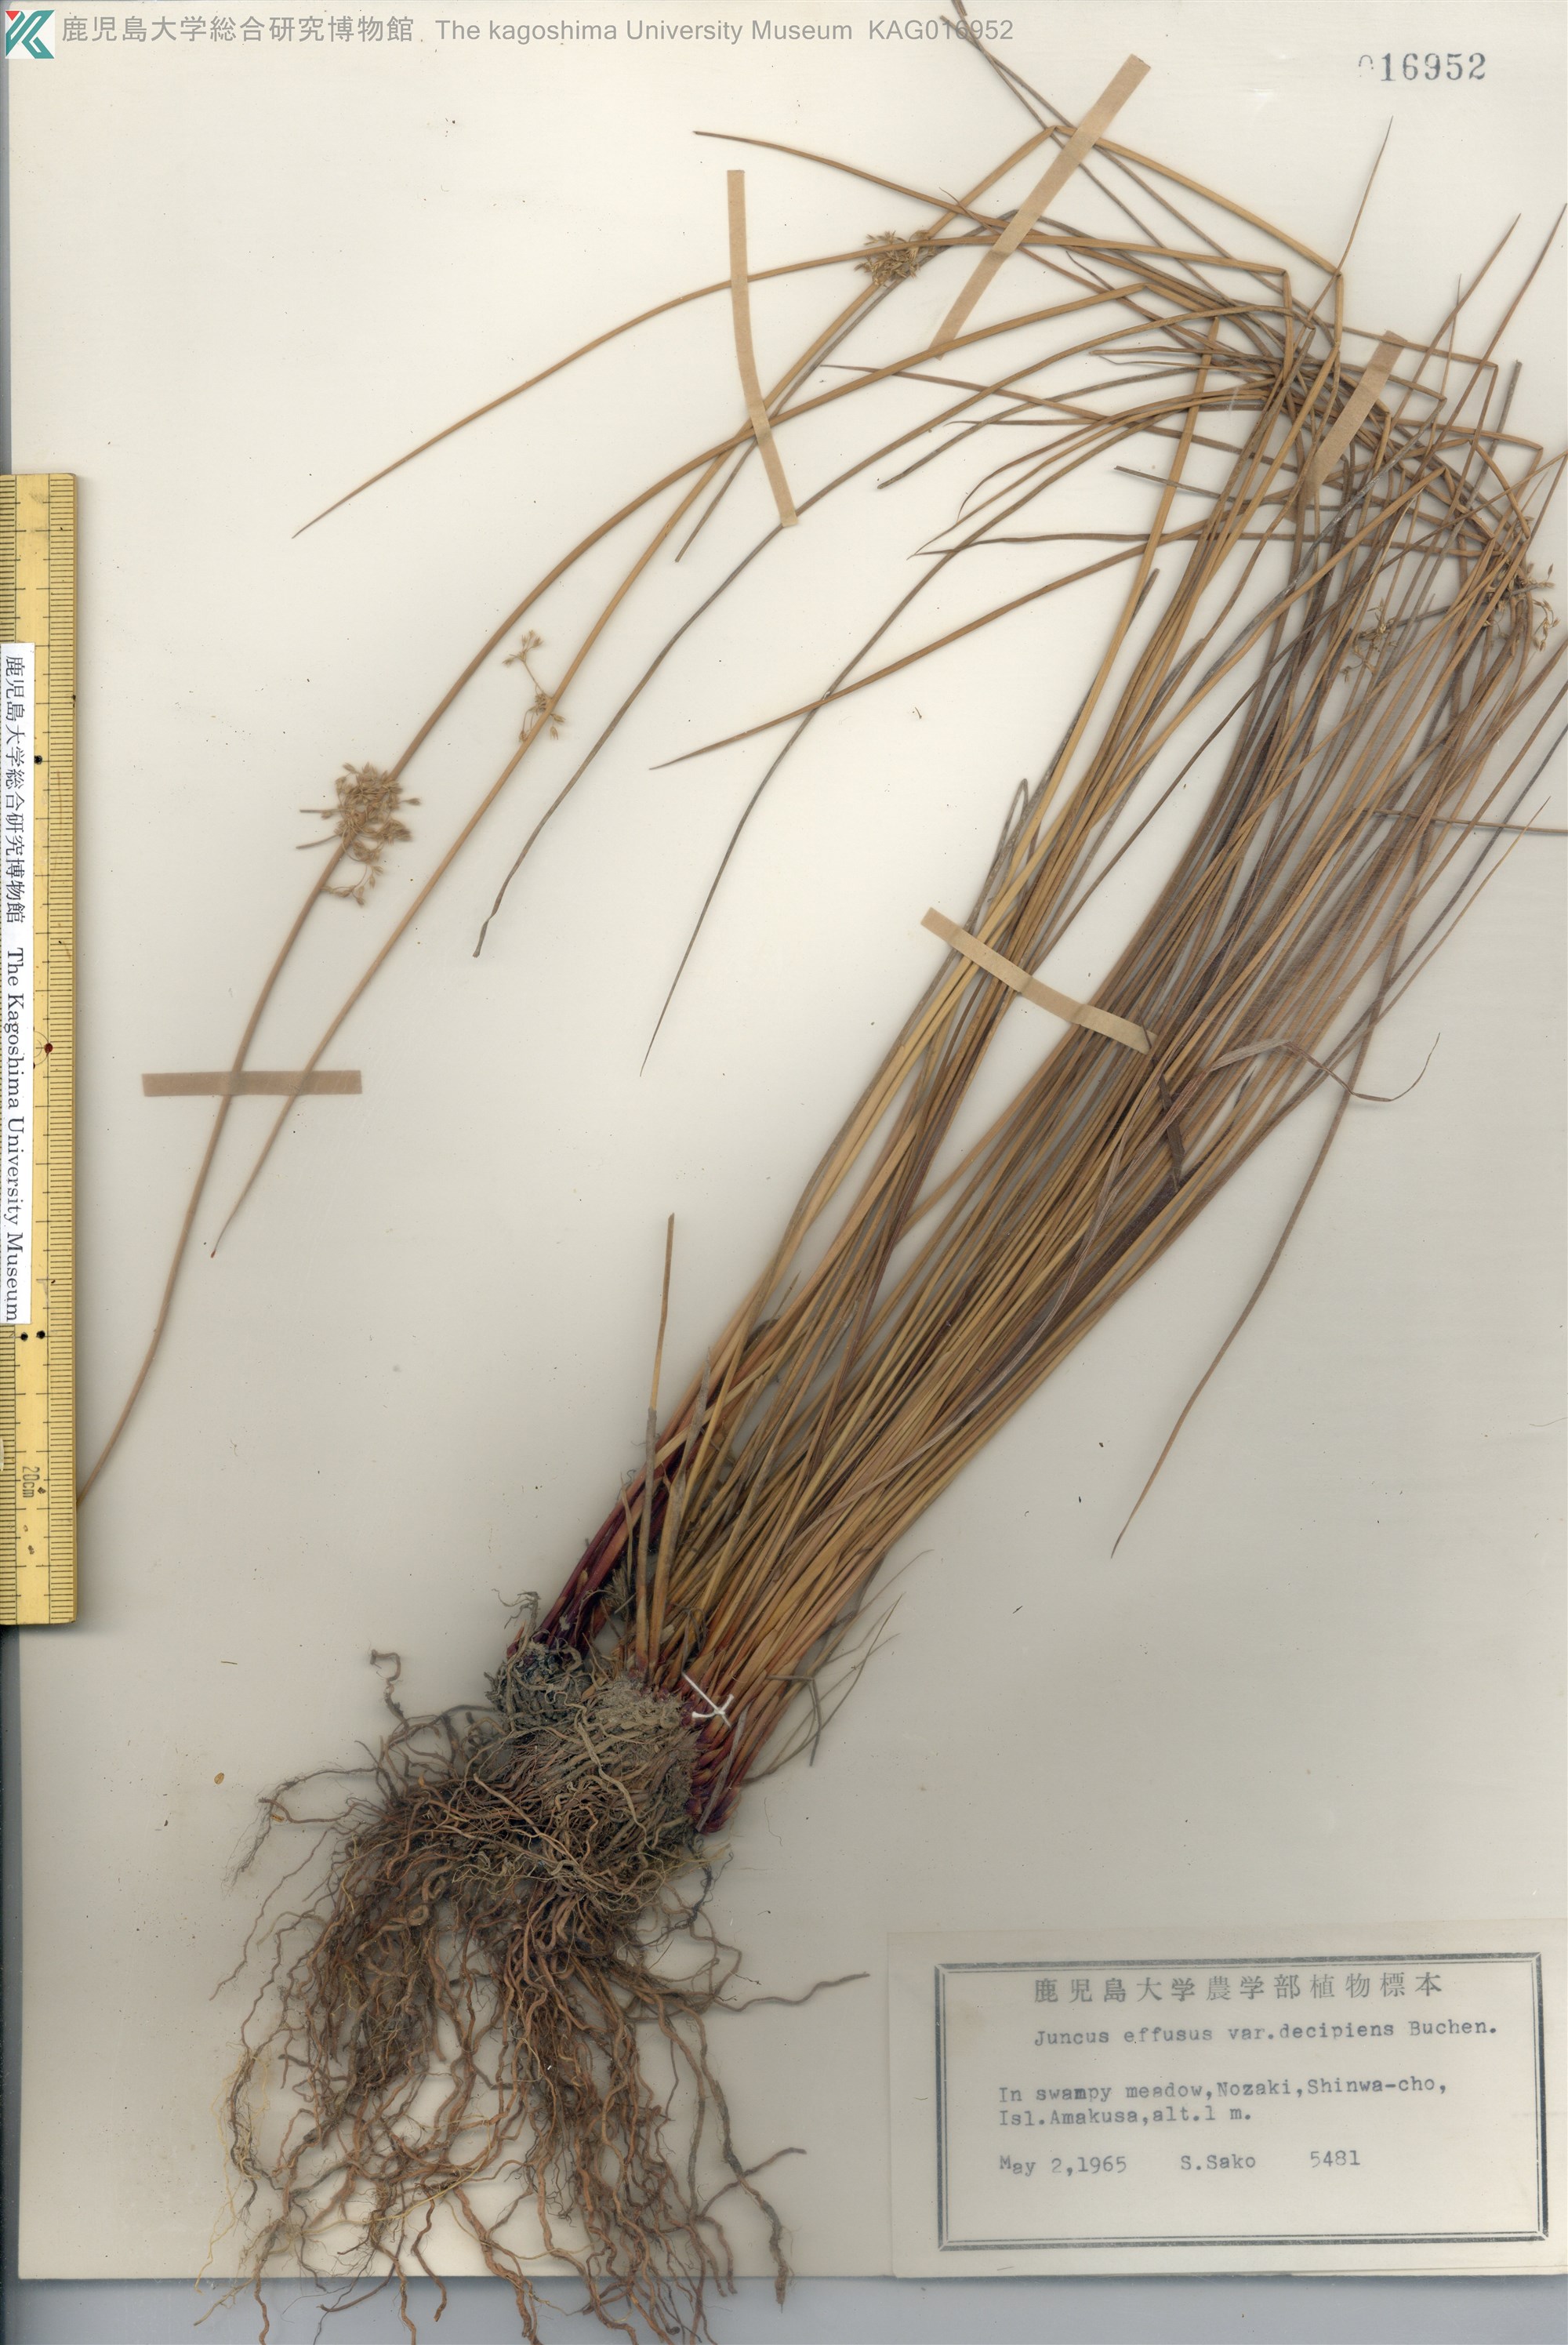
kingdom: Plantae
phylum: Tracheophyta
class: Liliopsida
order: Poales
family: Juncaceae
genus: Juncus
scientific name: Juncus decipiens
